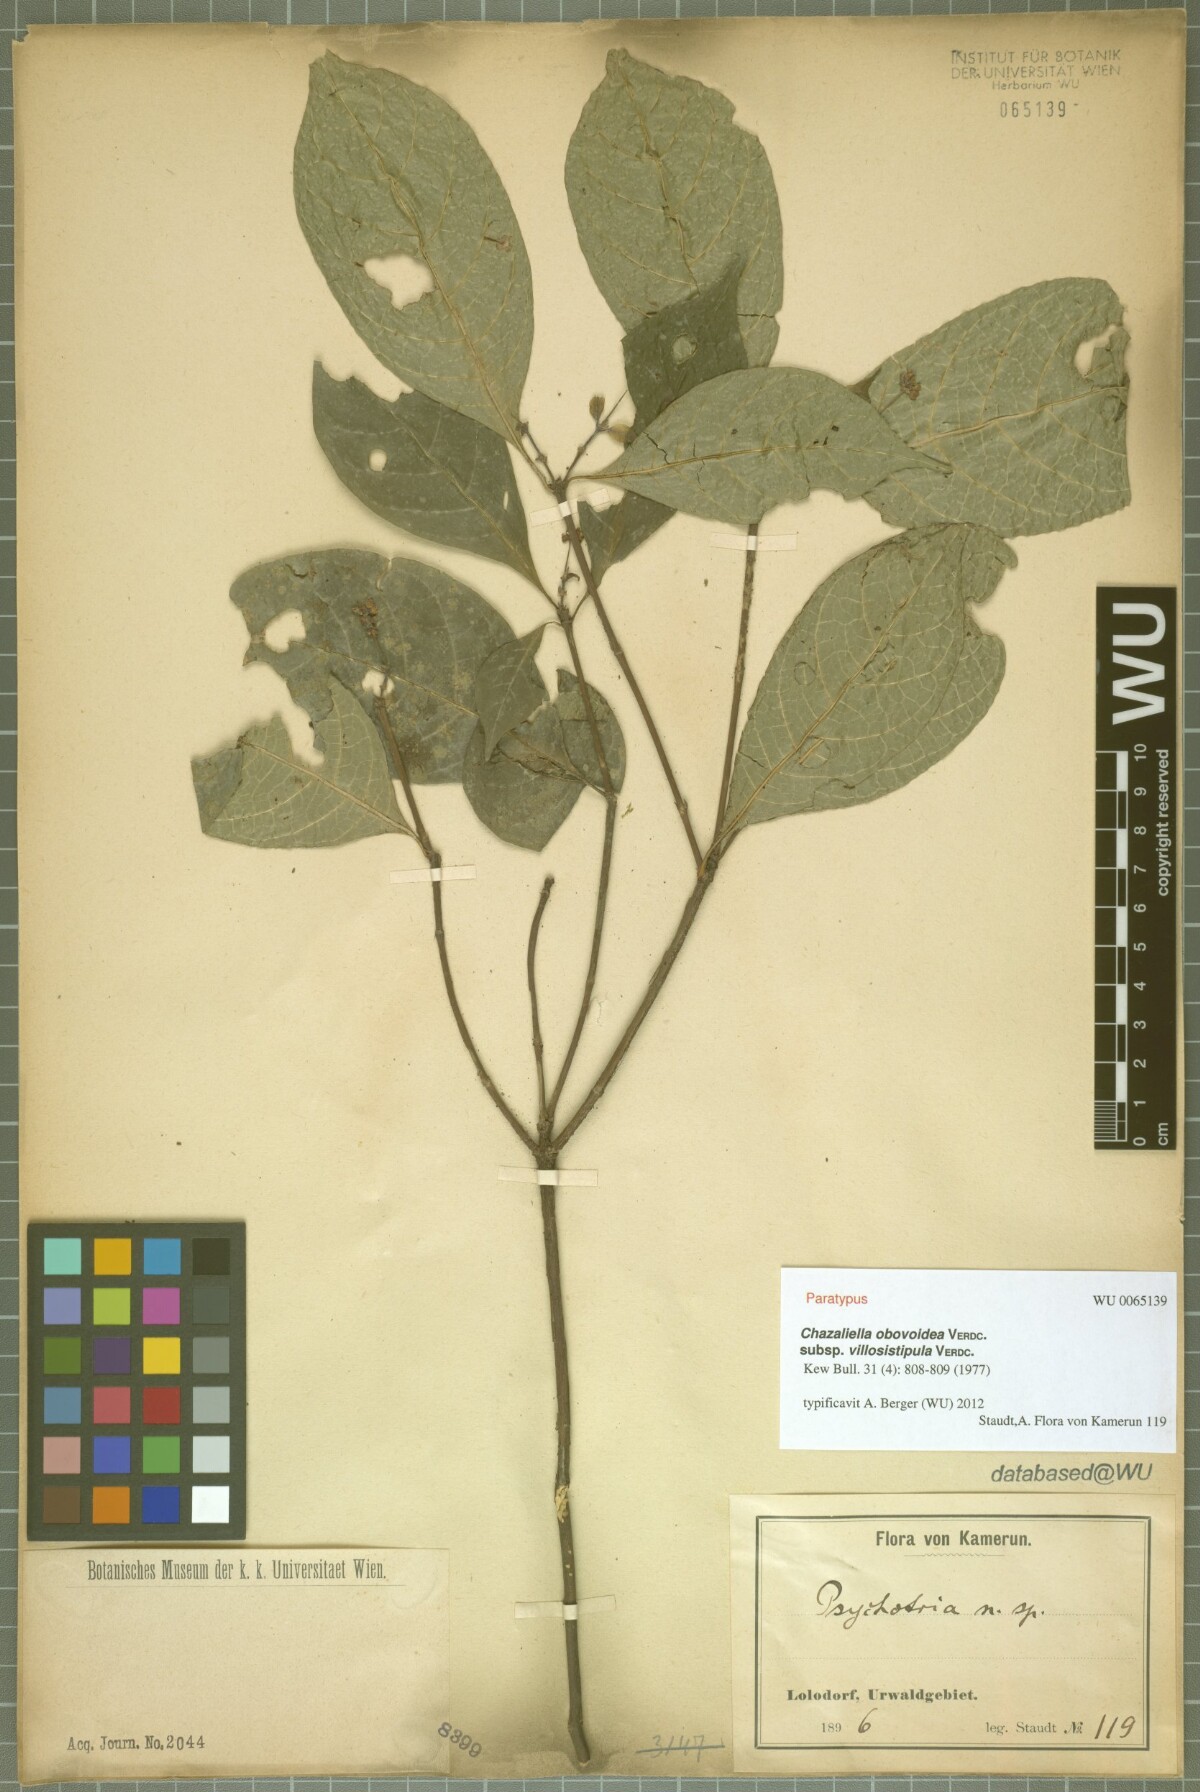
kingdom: Plantae
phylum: Tracheophyta
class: Magnoliopsida
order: Gentianales
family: Rubiaceae
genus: Eumachia
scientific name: Eumachia obovoidea
